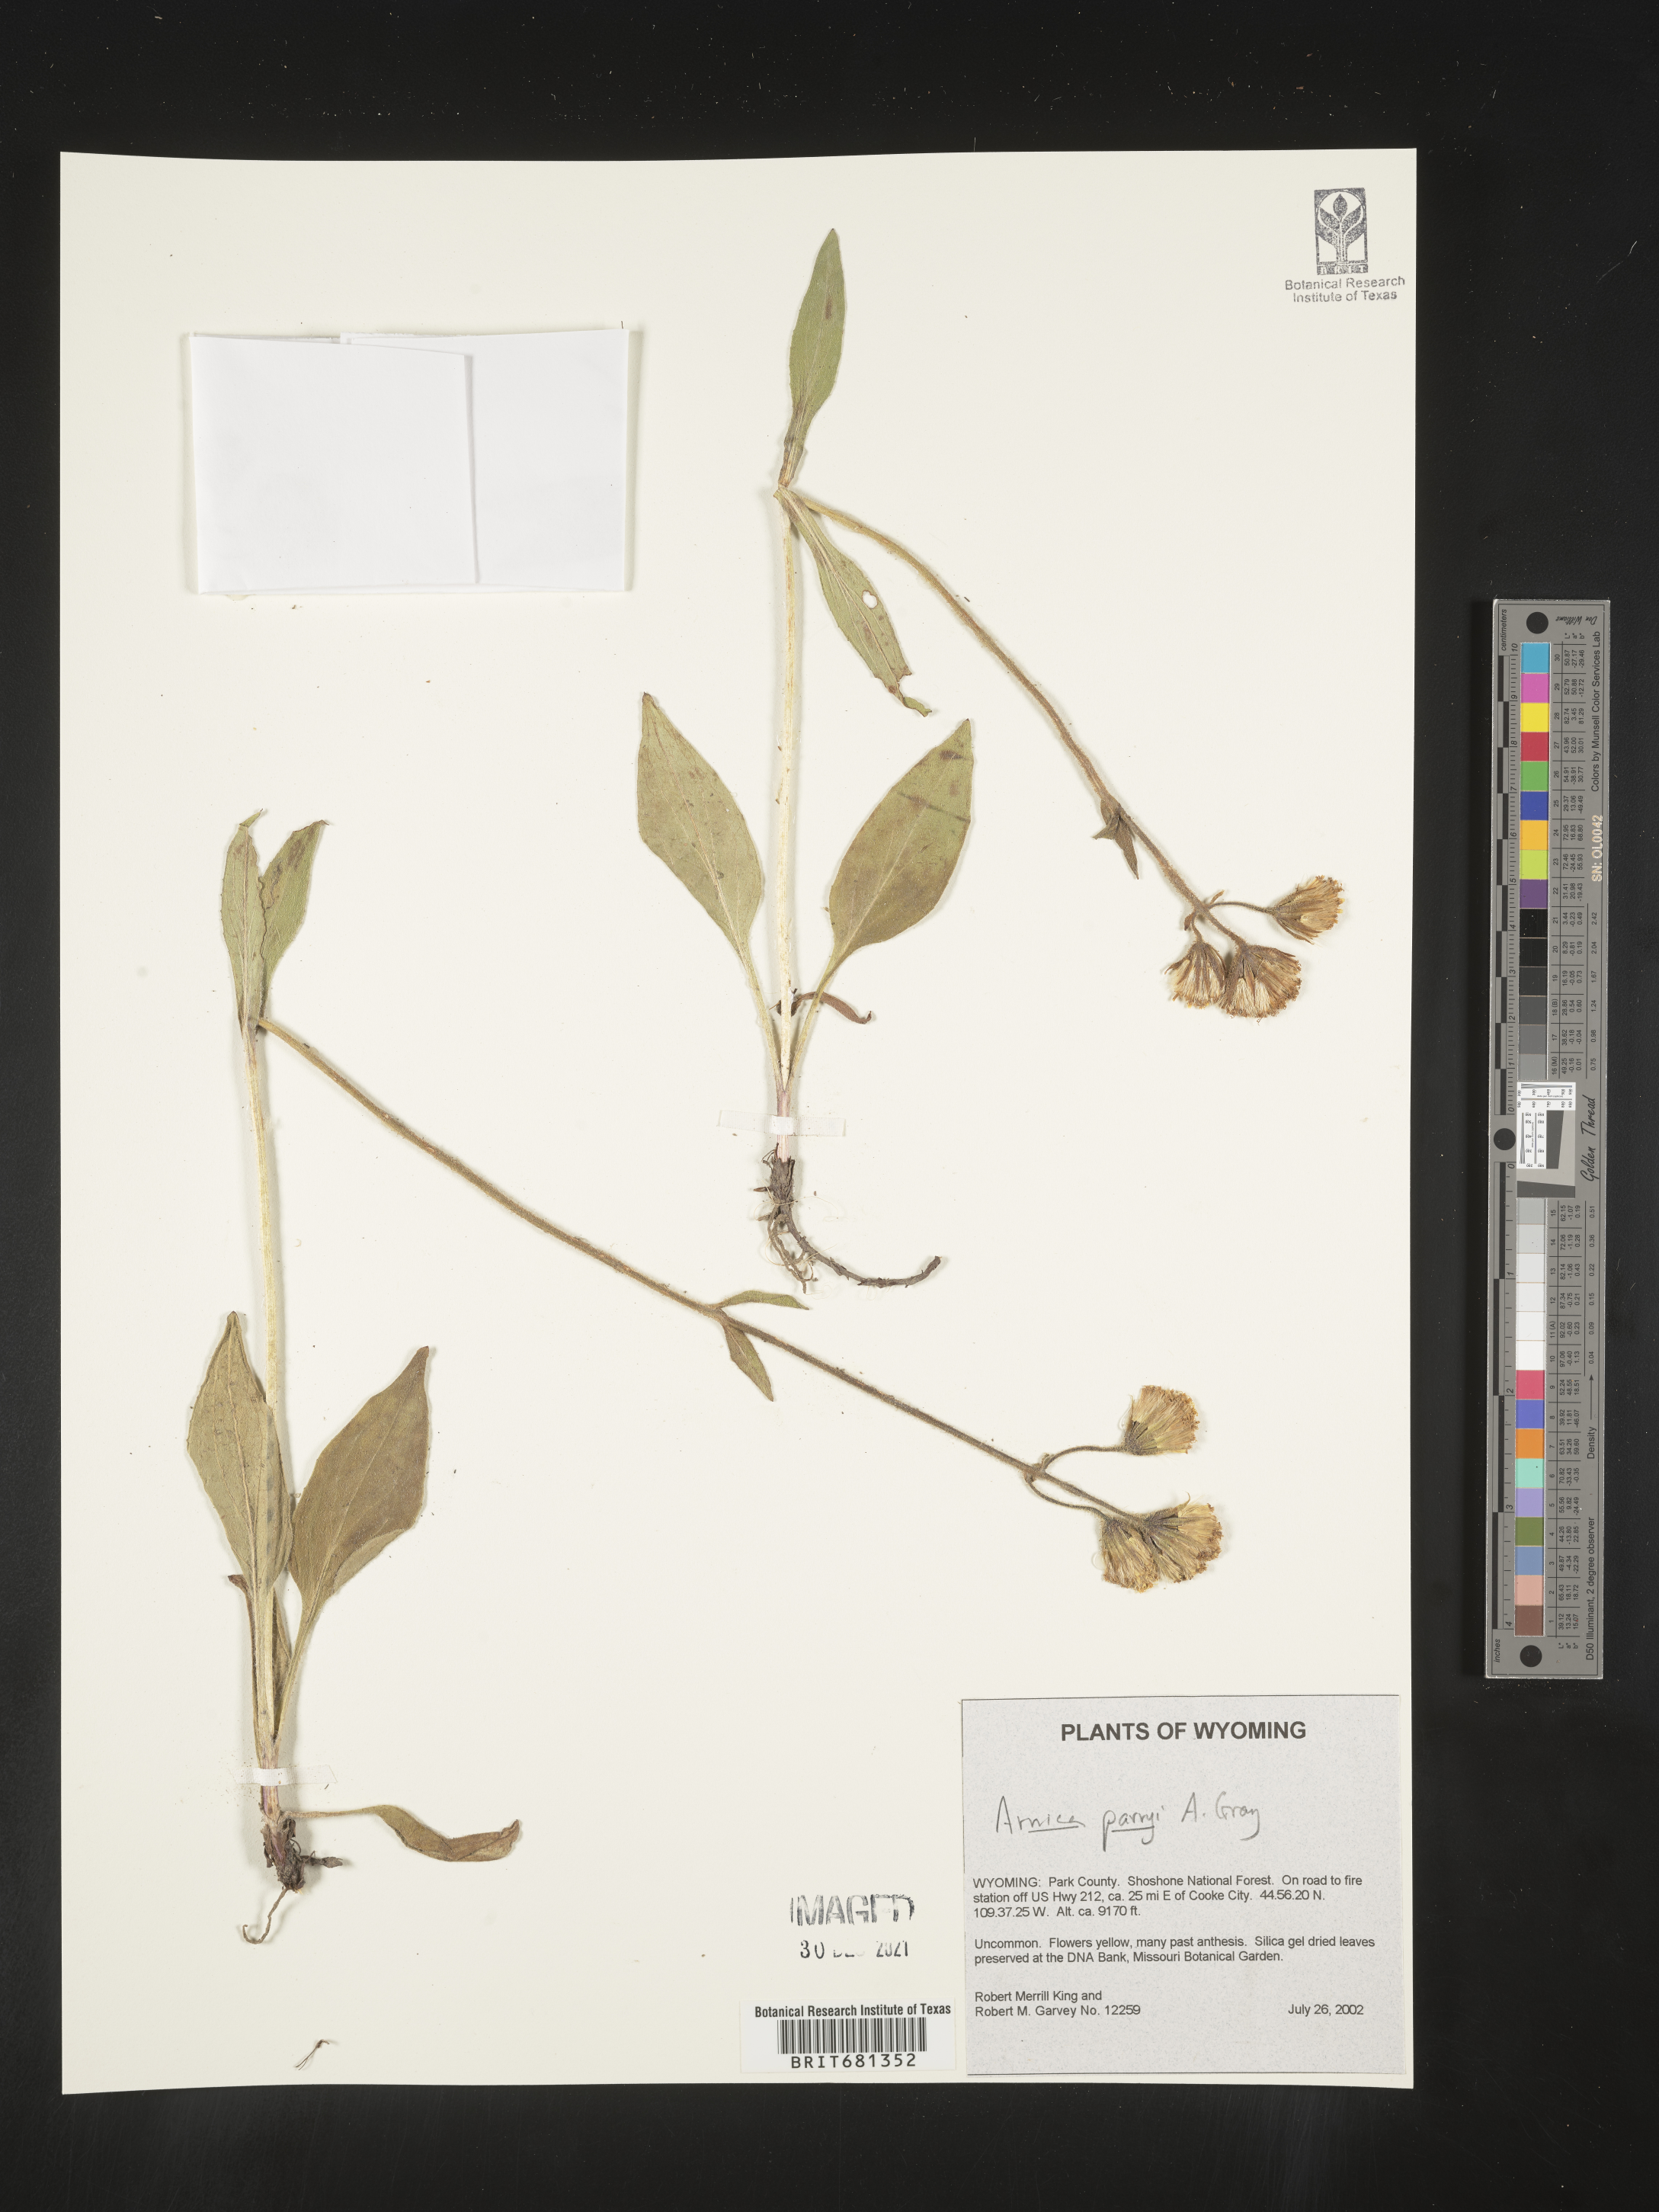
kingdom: Plantae
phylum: Tracheophyta
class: Magnoliopsida
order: Asterales
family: Asteraceae
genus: Arnica
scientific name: Arnica parryi
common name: Parry's arnica
